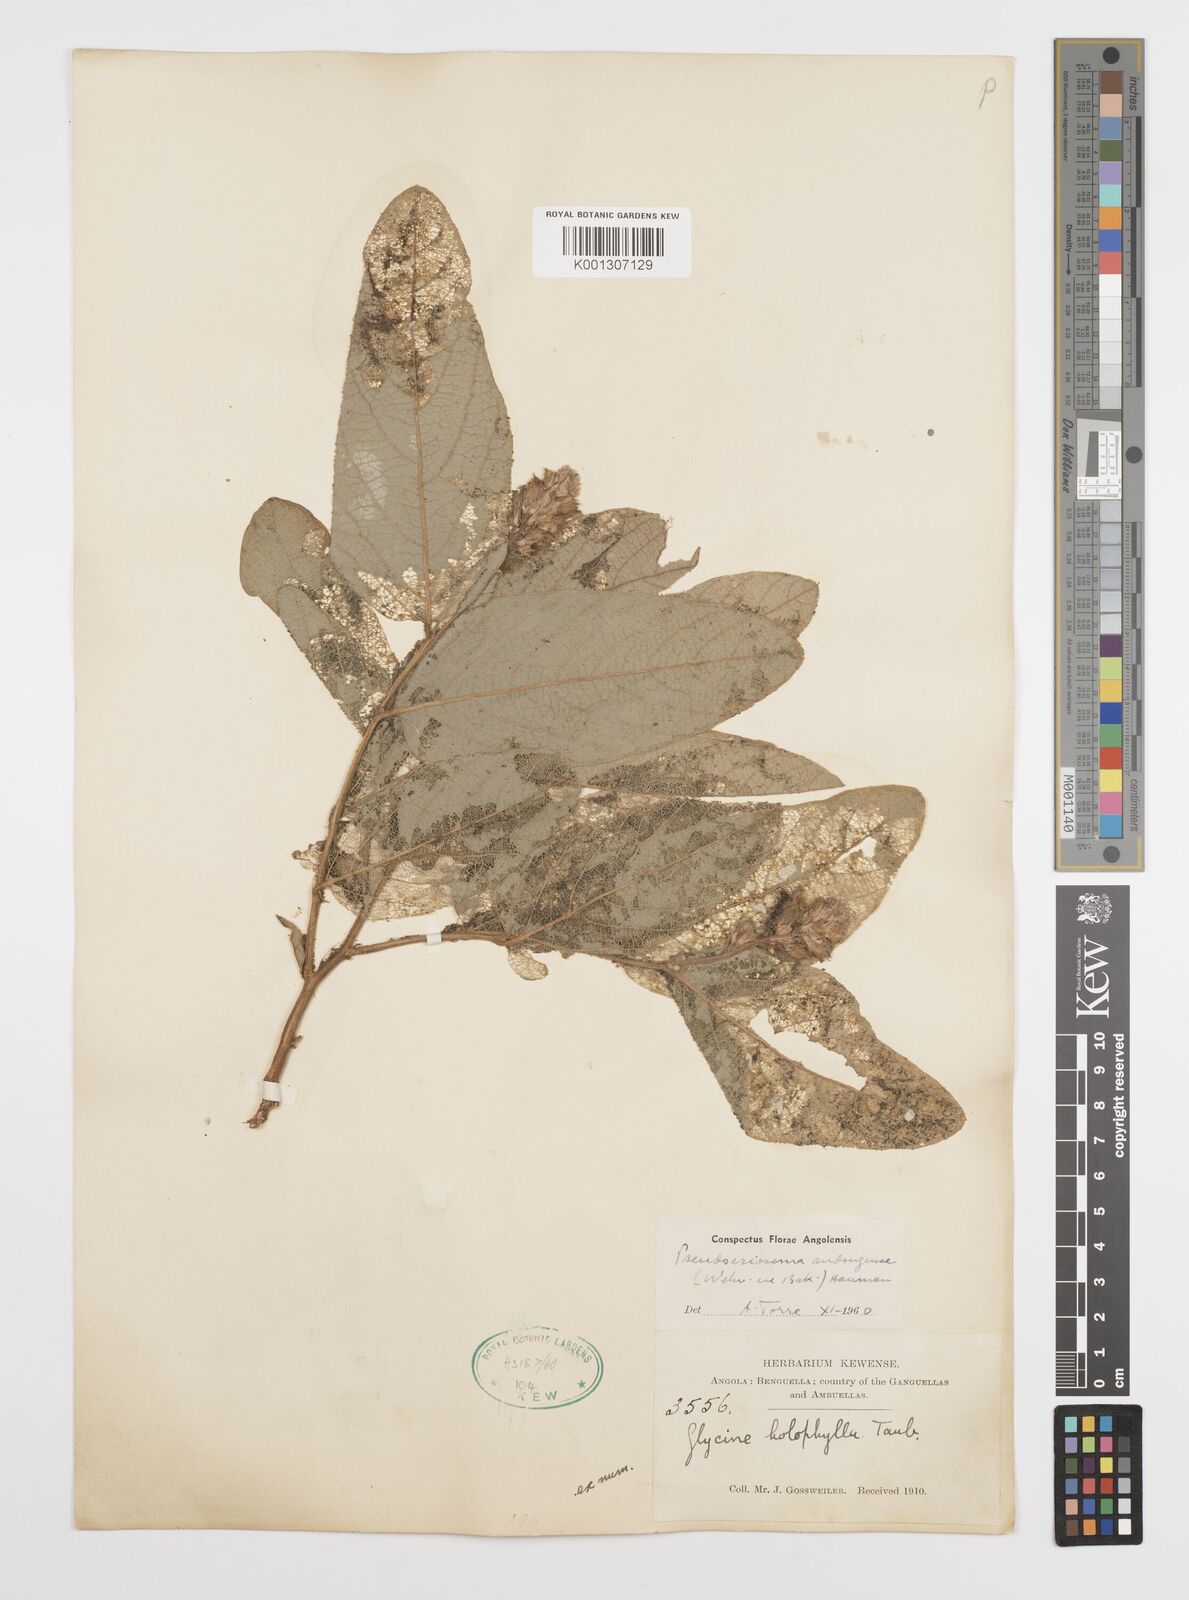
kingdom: Plantae
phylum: Tracheophyta
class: Magnoliopsida
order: Fabales
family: Fabaceae
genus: Pseudoeriosema
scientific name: Pseudoeriosema andongense
